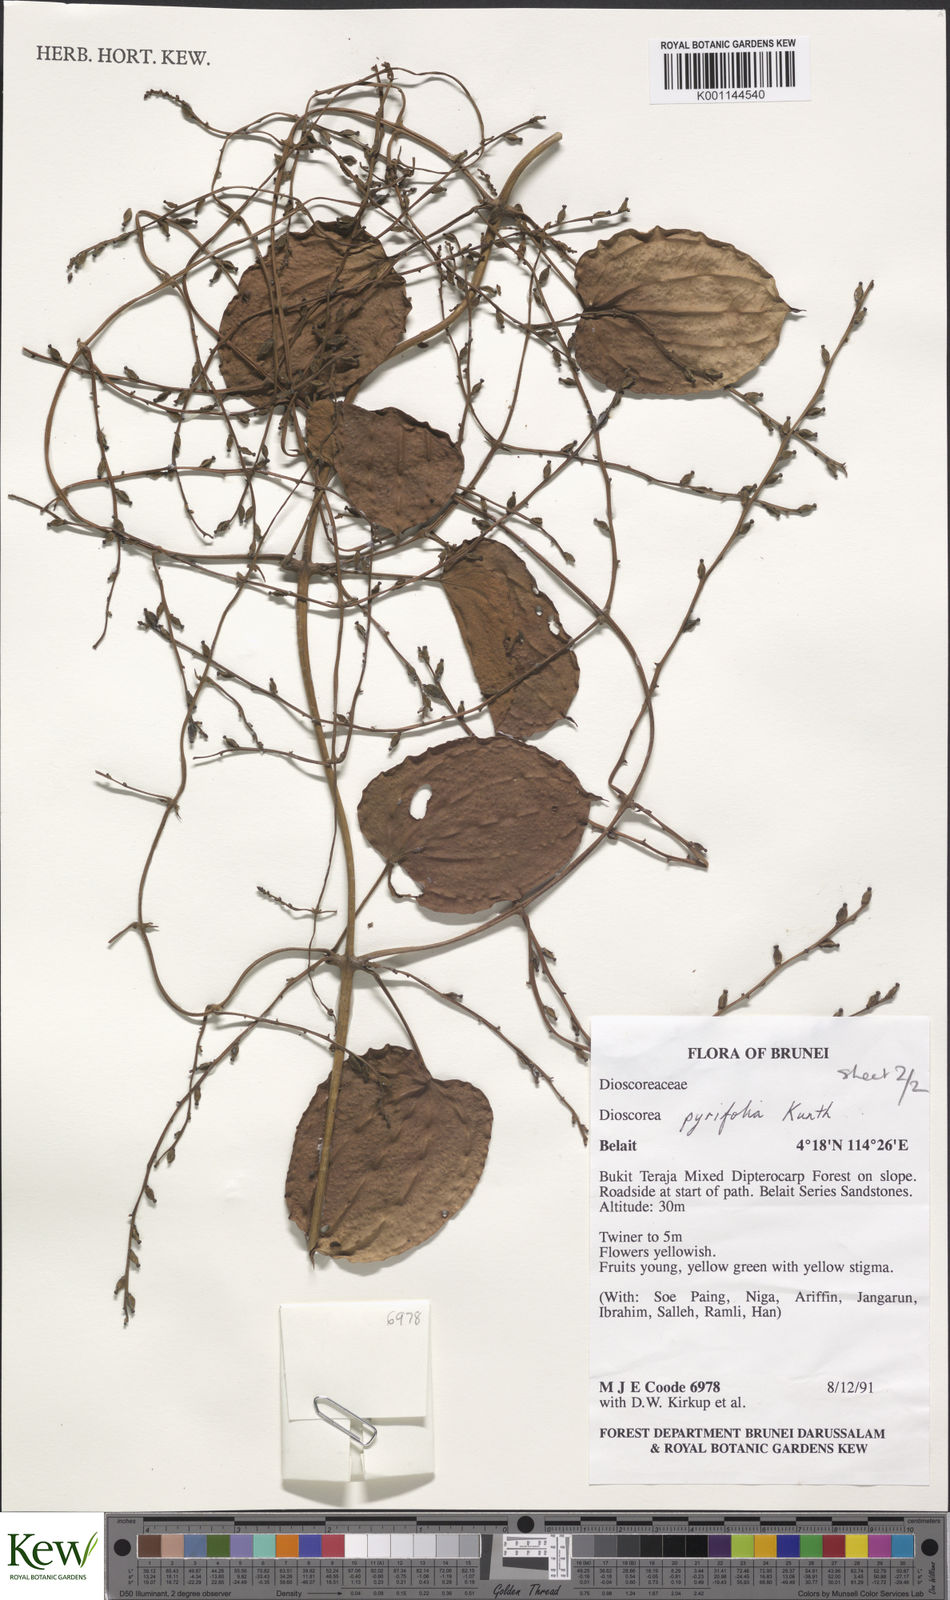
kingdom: Plantae
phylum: Tracheophyta
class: Liliopsida
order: Dioscoreales
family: Dioscoreaceae
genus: Dioscorea
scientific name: Dioscorea pyrifolia
